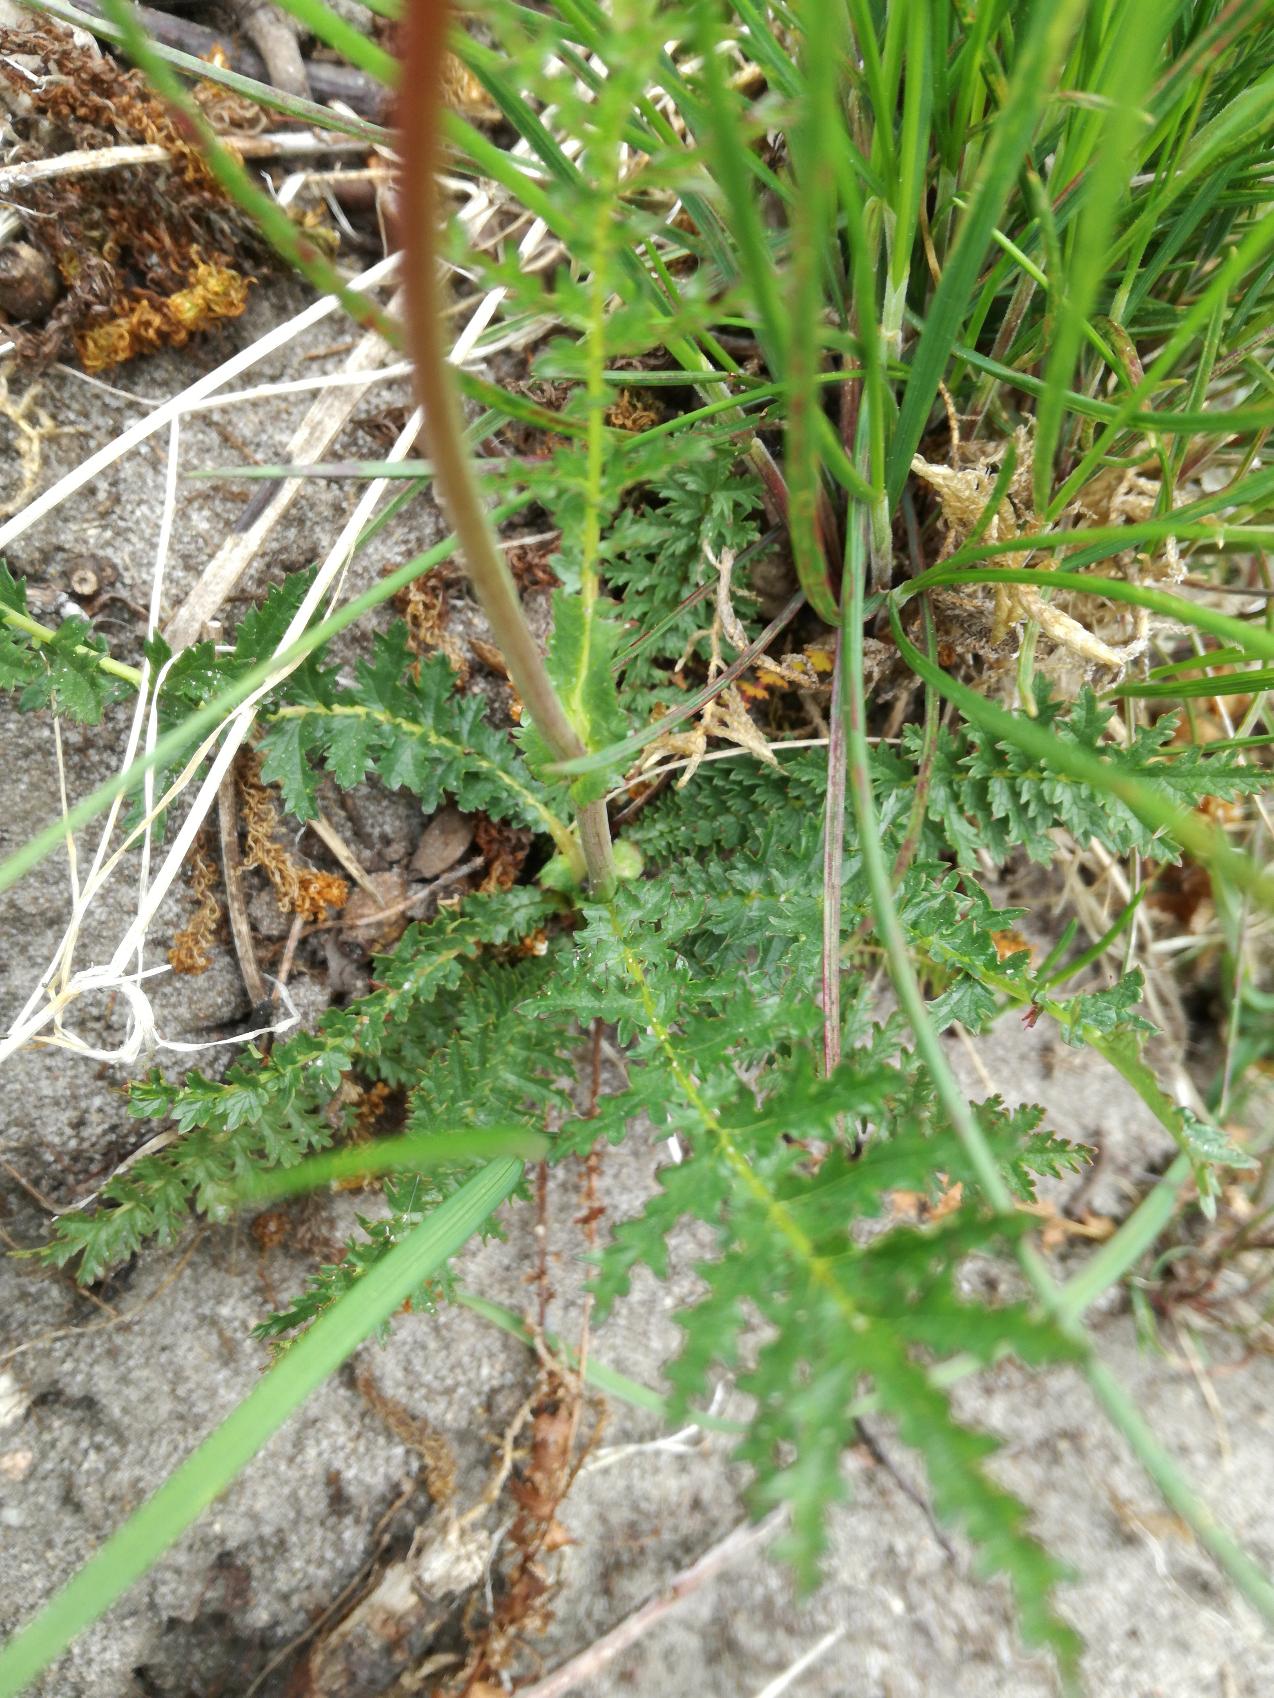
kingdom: Plantae
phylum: Tracheophyta
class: Magnoliopsida
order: Rosales
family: Rosaceae
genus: Filipendula
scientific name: Filipendula vulgaris
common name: Knoldet mjødurt
